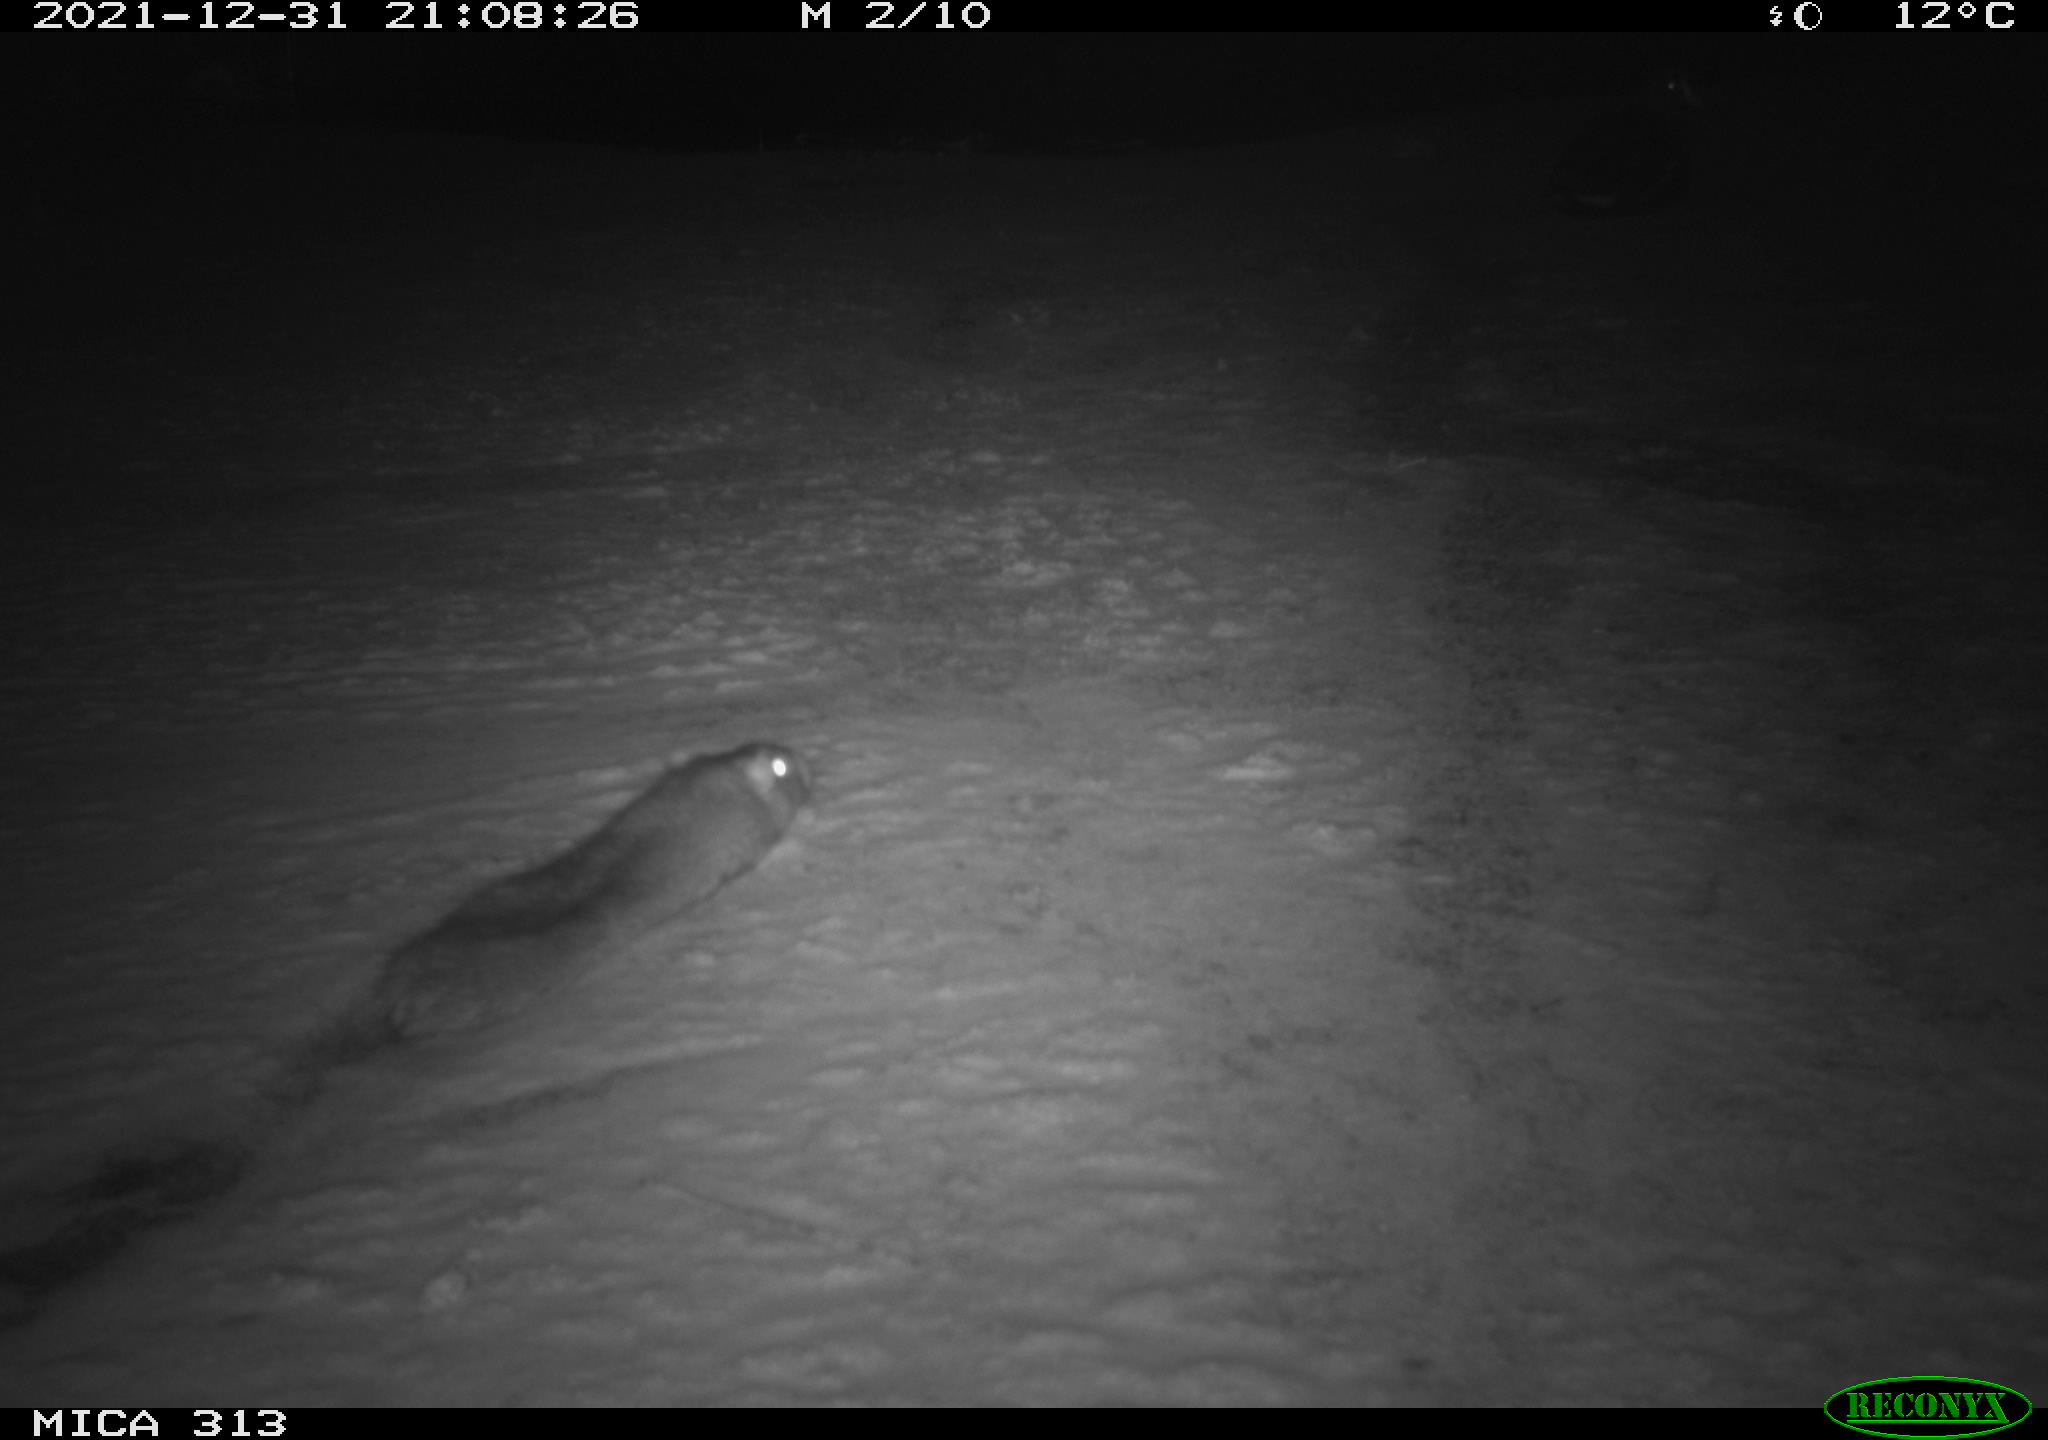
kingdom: Animalia
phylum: Chordata
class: Mammalia
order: Rodentia
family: Muridae
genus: Rattus
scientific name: Rattus norvegicus
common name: Brown rat
